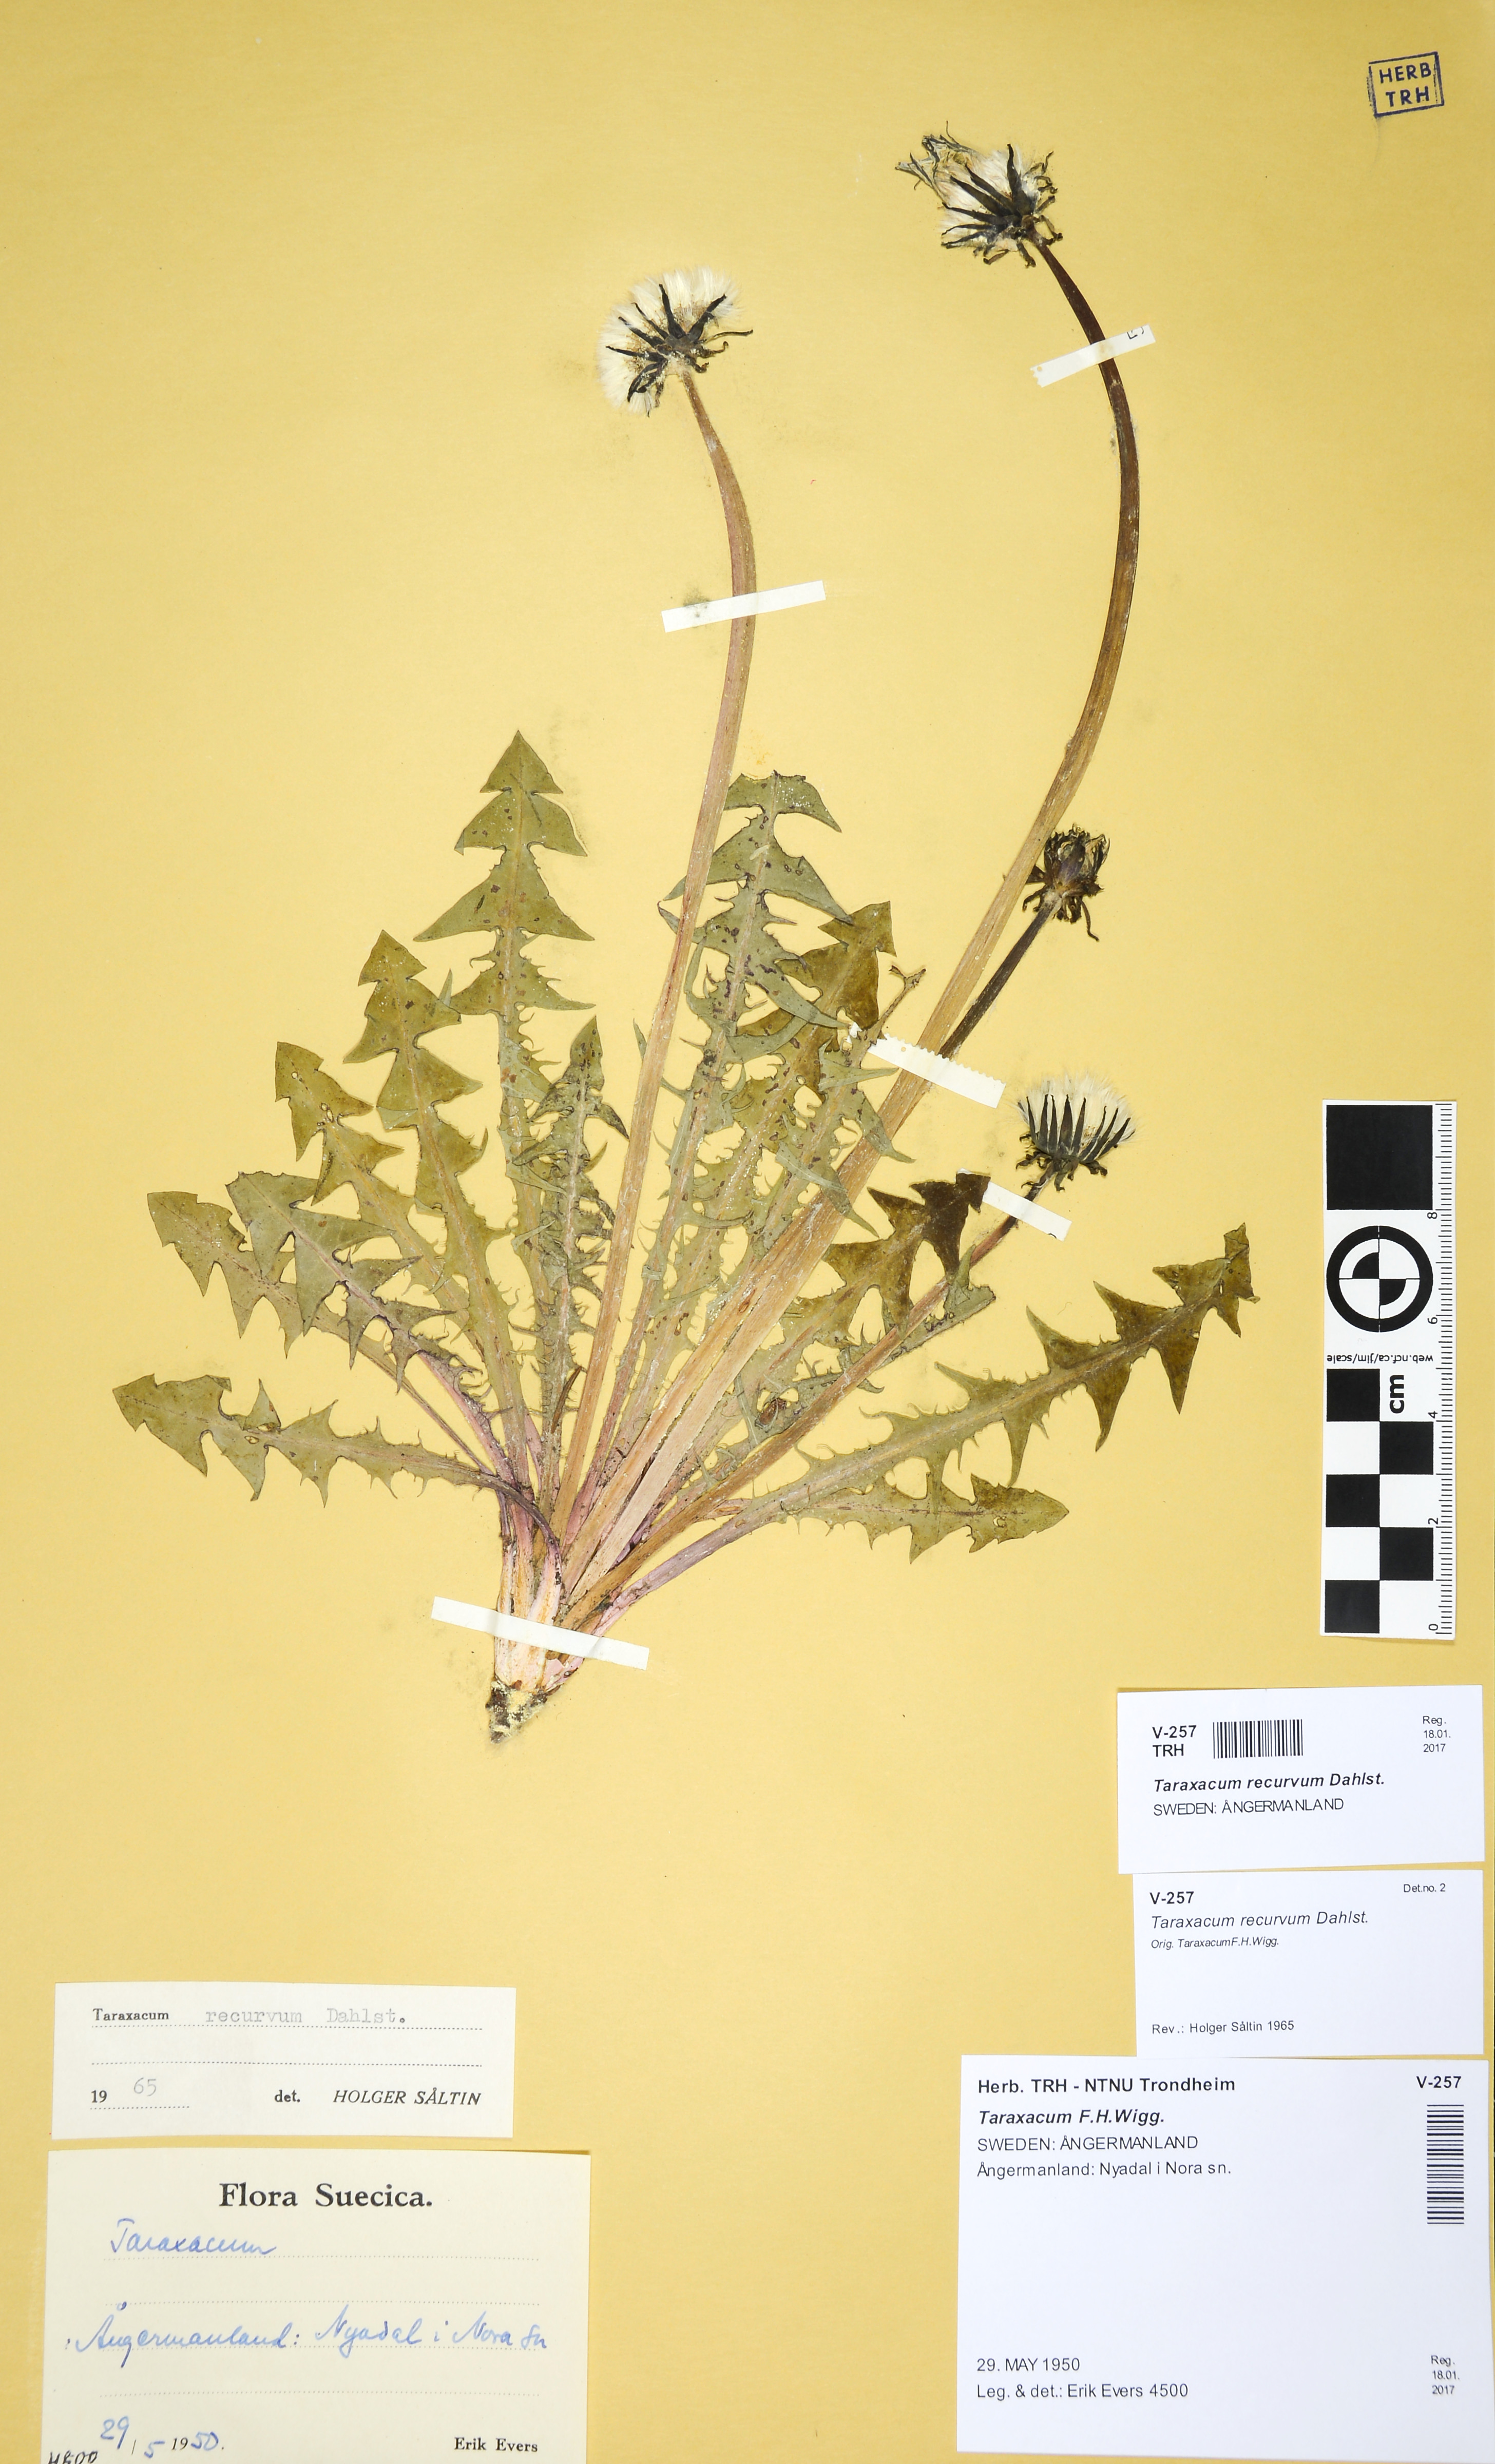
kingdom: Plantae
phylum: Tracheophyta
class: Magnoliopsida
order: Asterales
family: Asteraceae
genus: Taraxacum
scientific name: Taraxacum recurvum
